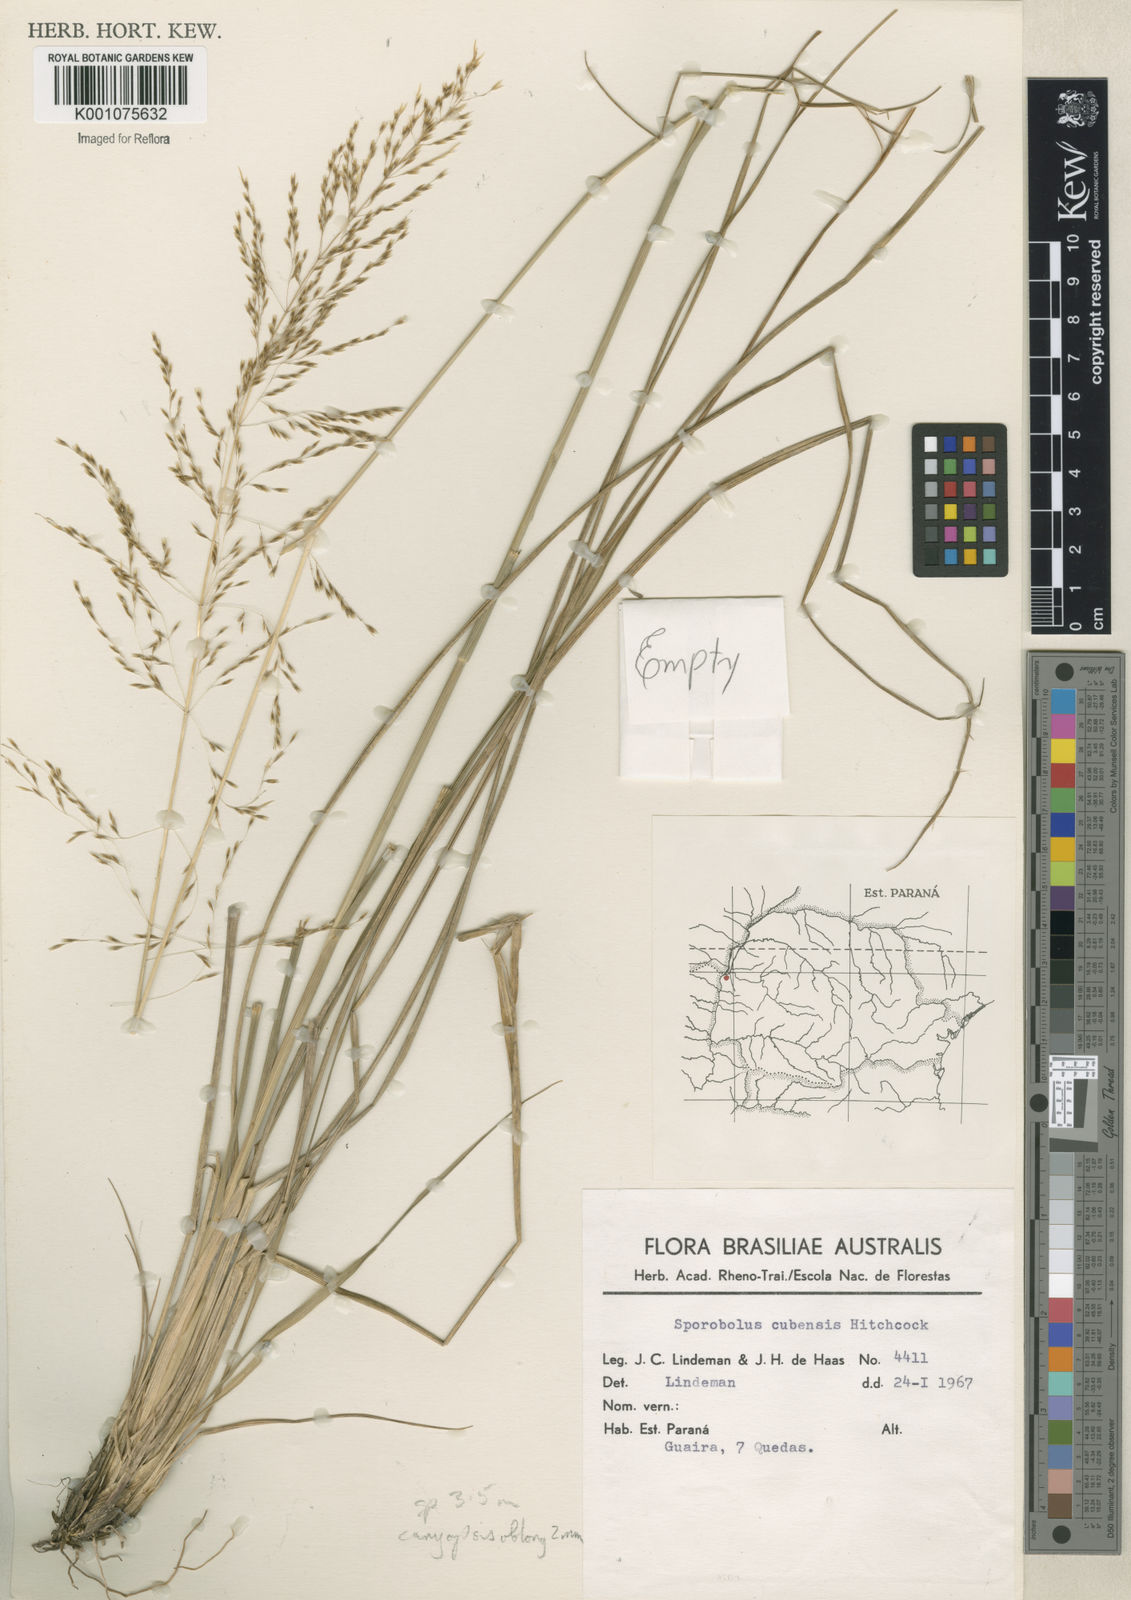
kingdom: Plantae
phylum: Tracheophyta
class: Liliopsida
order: Poales
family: Poaceae
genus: Sporobolus
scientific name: Sporobolus camporum
